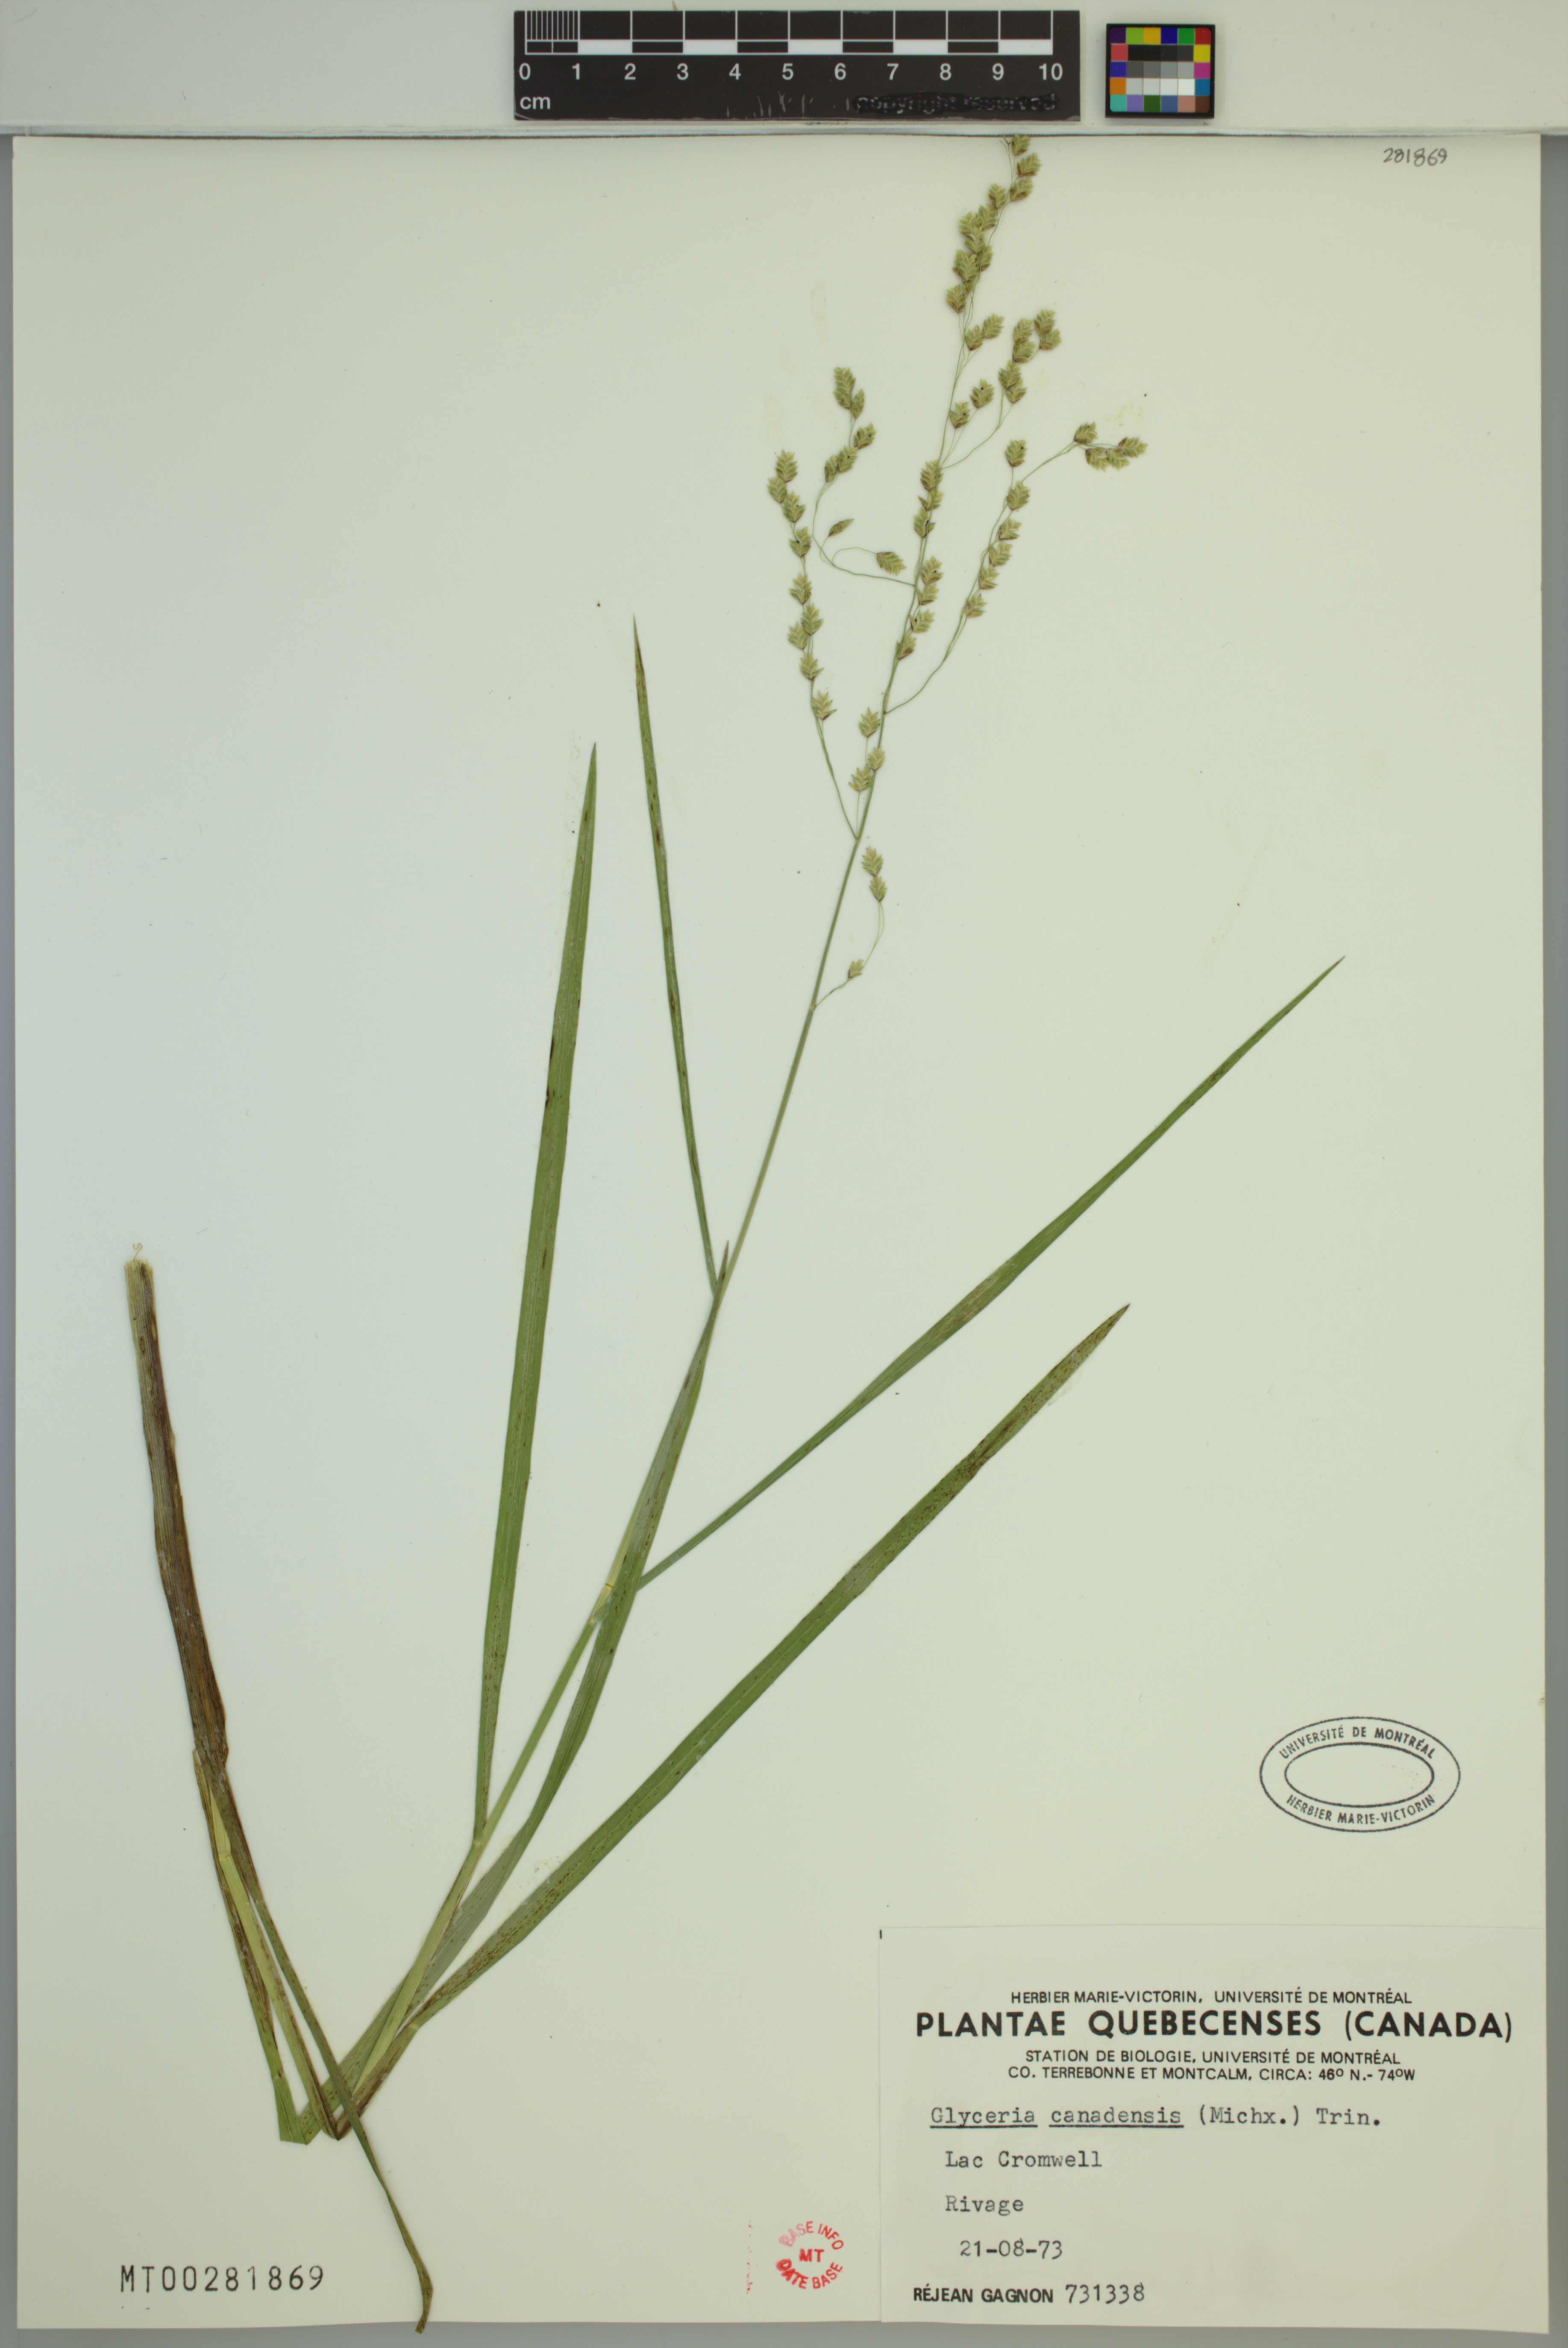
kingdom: Plantae
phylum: Tracheophyta
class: Liliopsida
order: Poales
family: Poaceae
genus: Glyceria
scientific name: Glyceria canadensis
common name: Canada mannagrass
